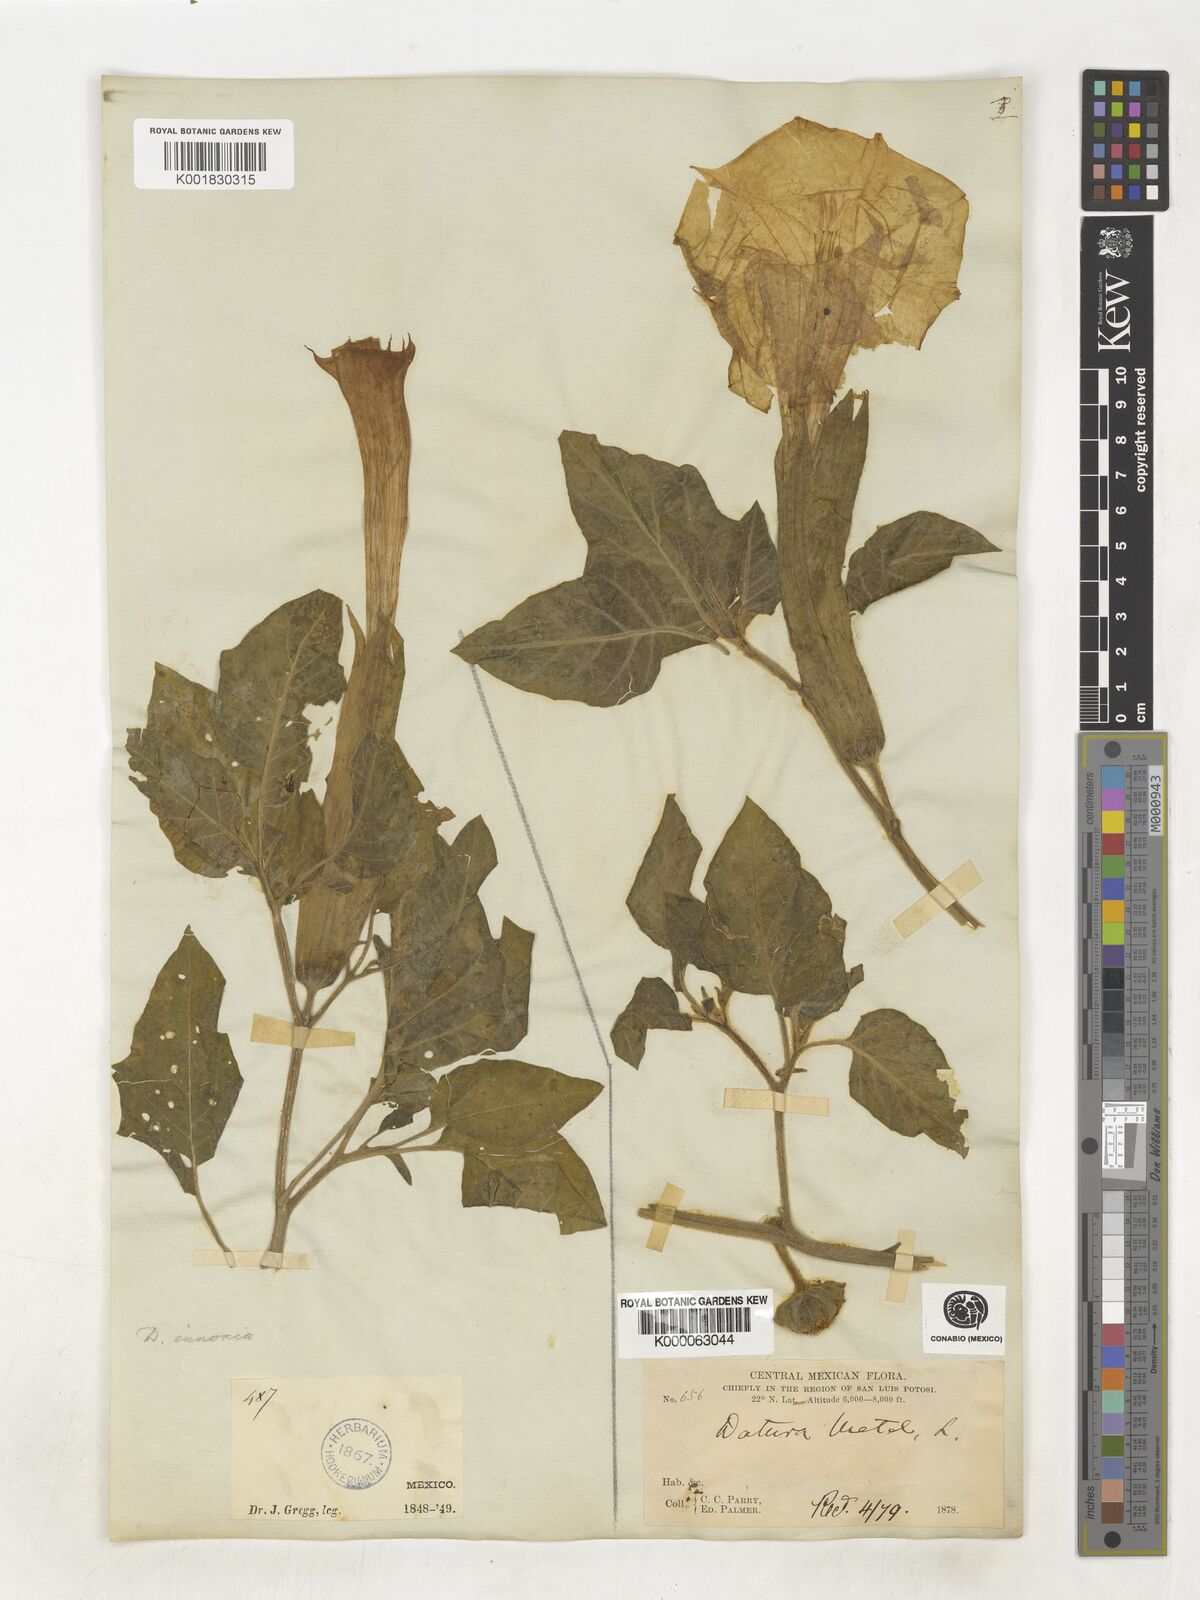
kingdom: Plantae
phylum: Tracheophyta
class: Magnoliopsida
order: Solanales
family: Solanaceae
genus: Datura
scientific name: Datura
